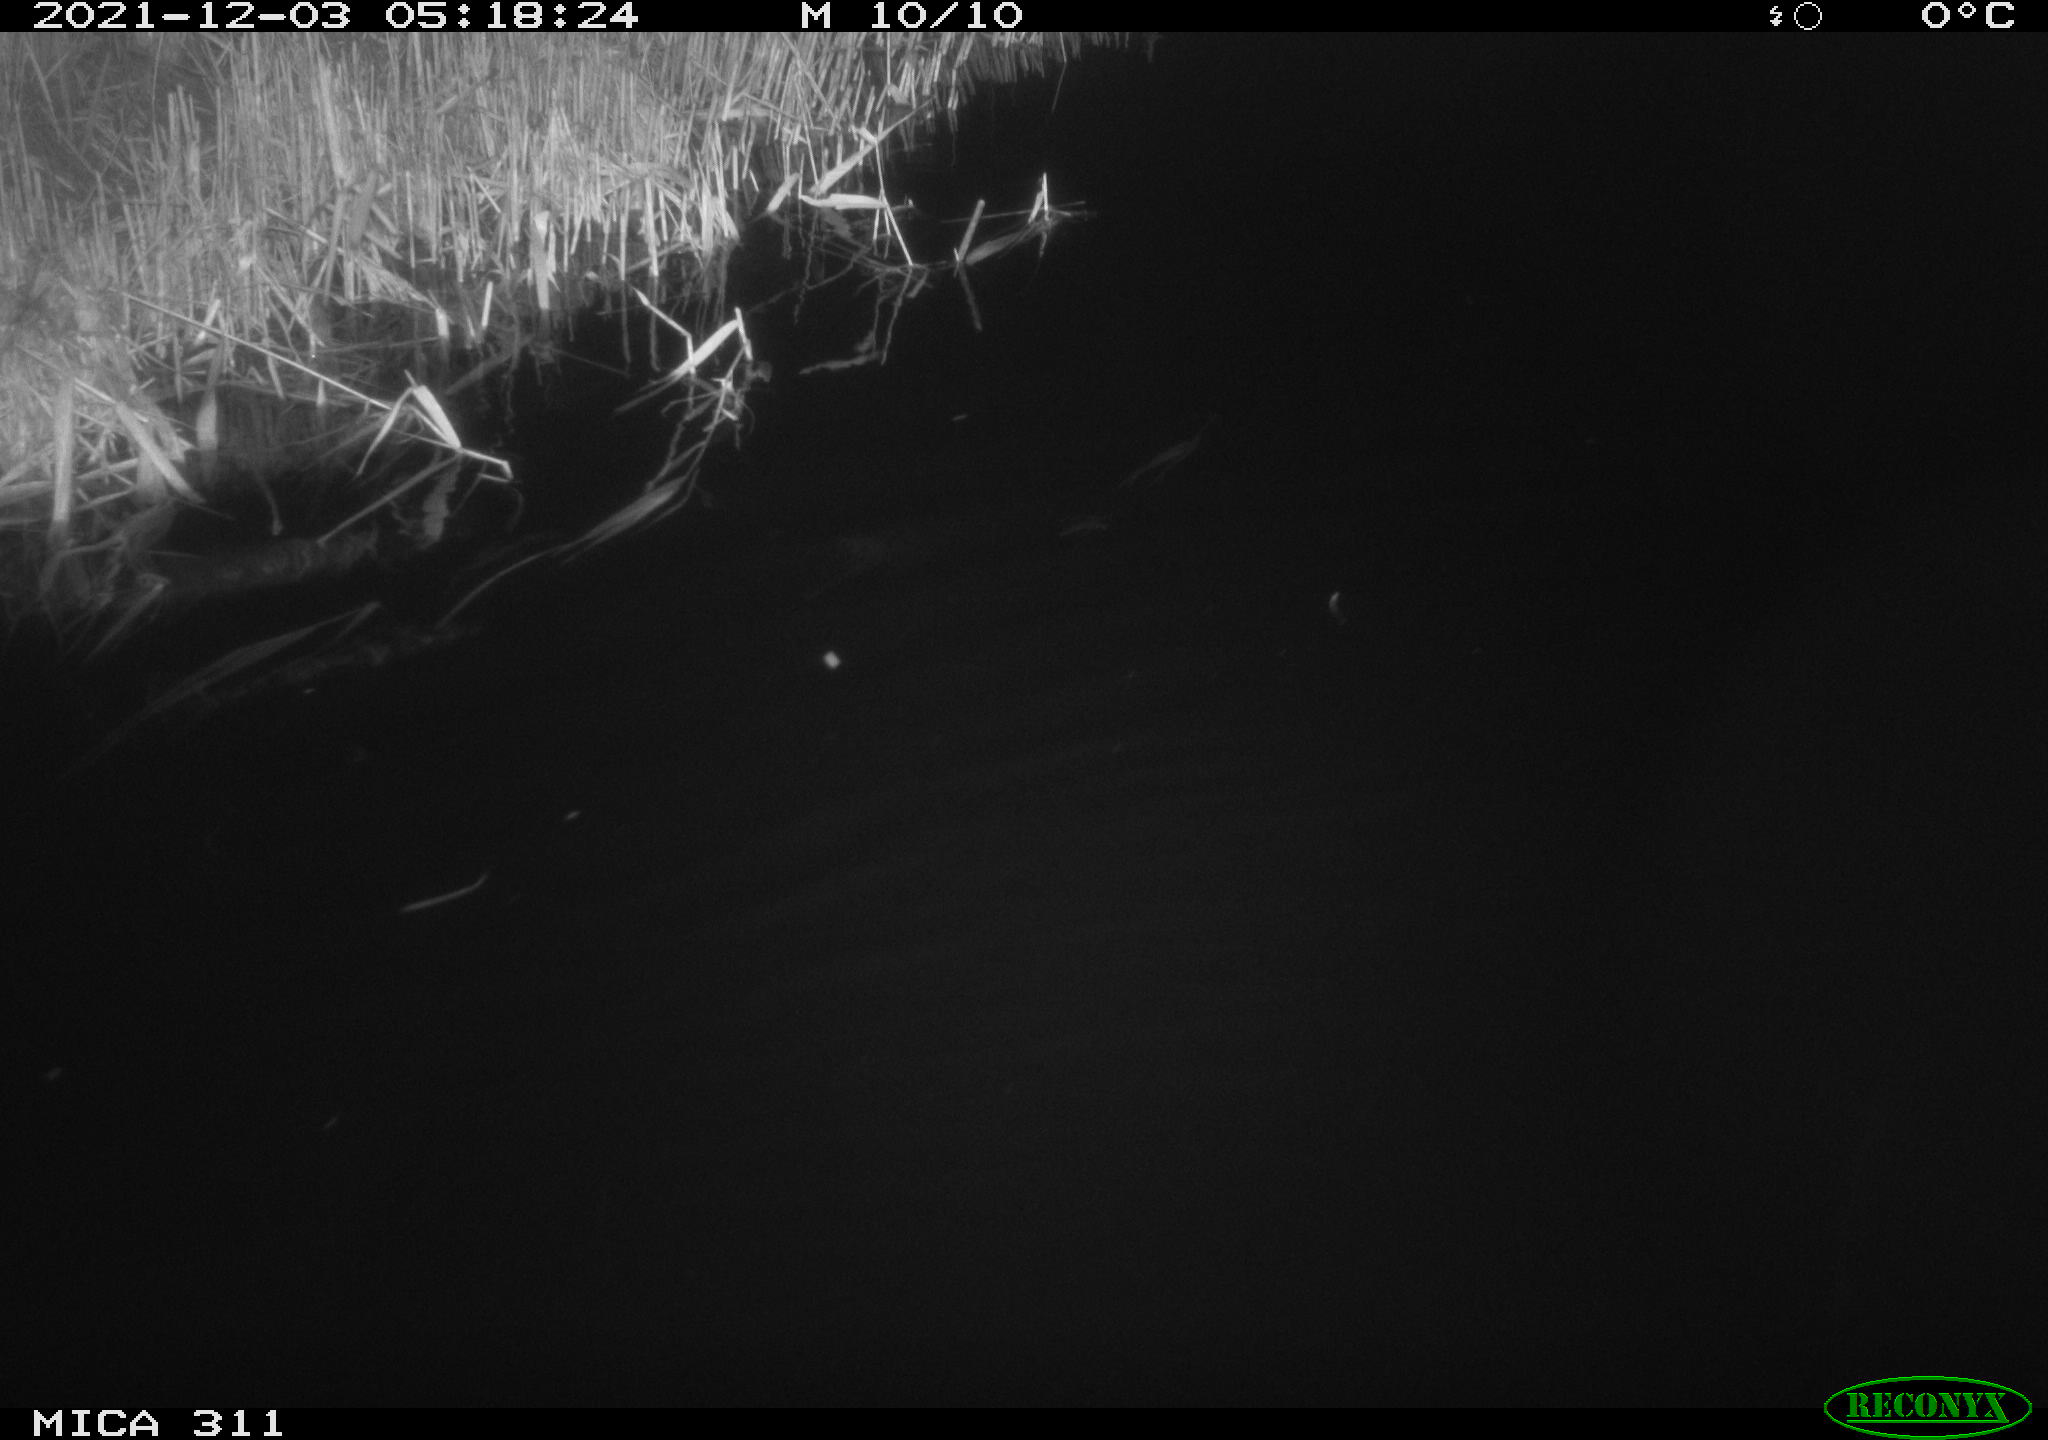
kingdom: Animalia
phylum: Chordata
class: Mammalia
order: Rodentia
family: Muridae
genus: Rattus
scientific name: Rattus norvegicus
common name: Brown rat
